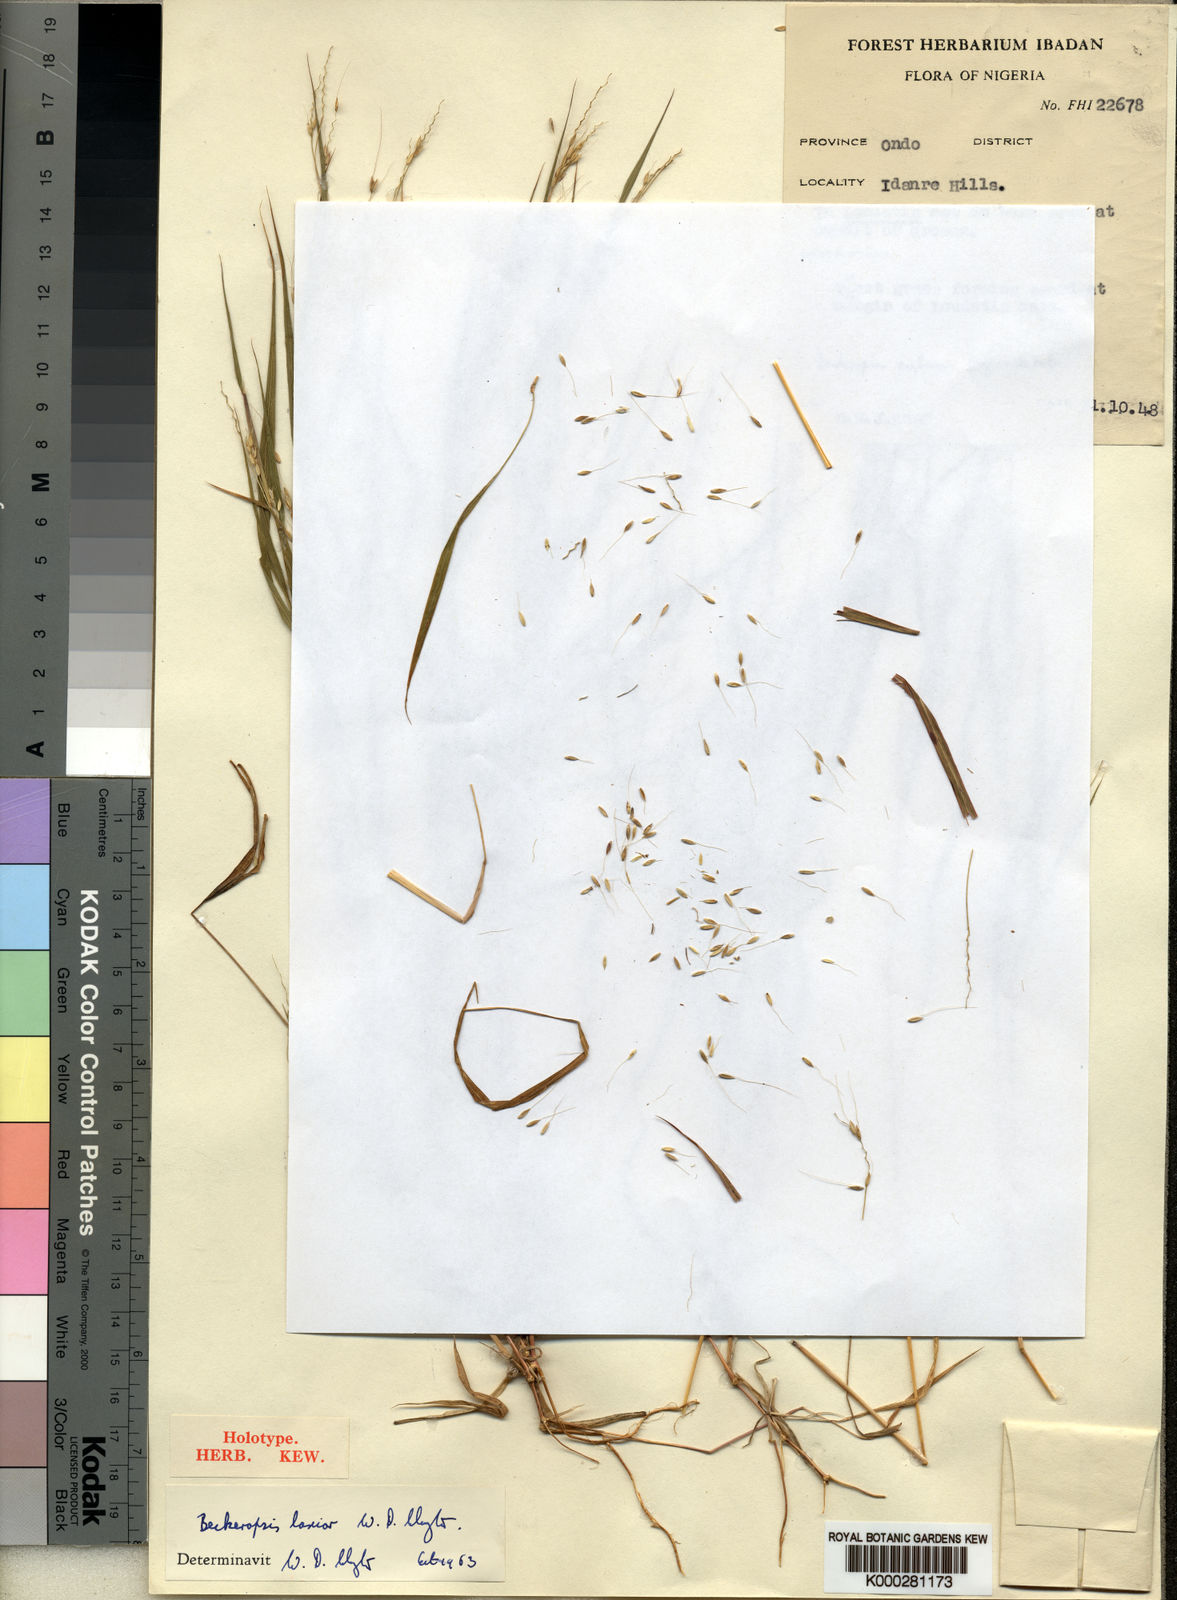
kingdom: Plantae
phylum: Tracheophyta
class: Liliopsida
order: Poales
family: Poaceae
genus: Cenchrus
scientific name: Cenchrus Pennisetum spec
